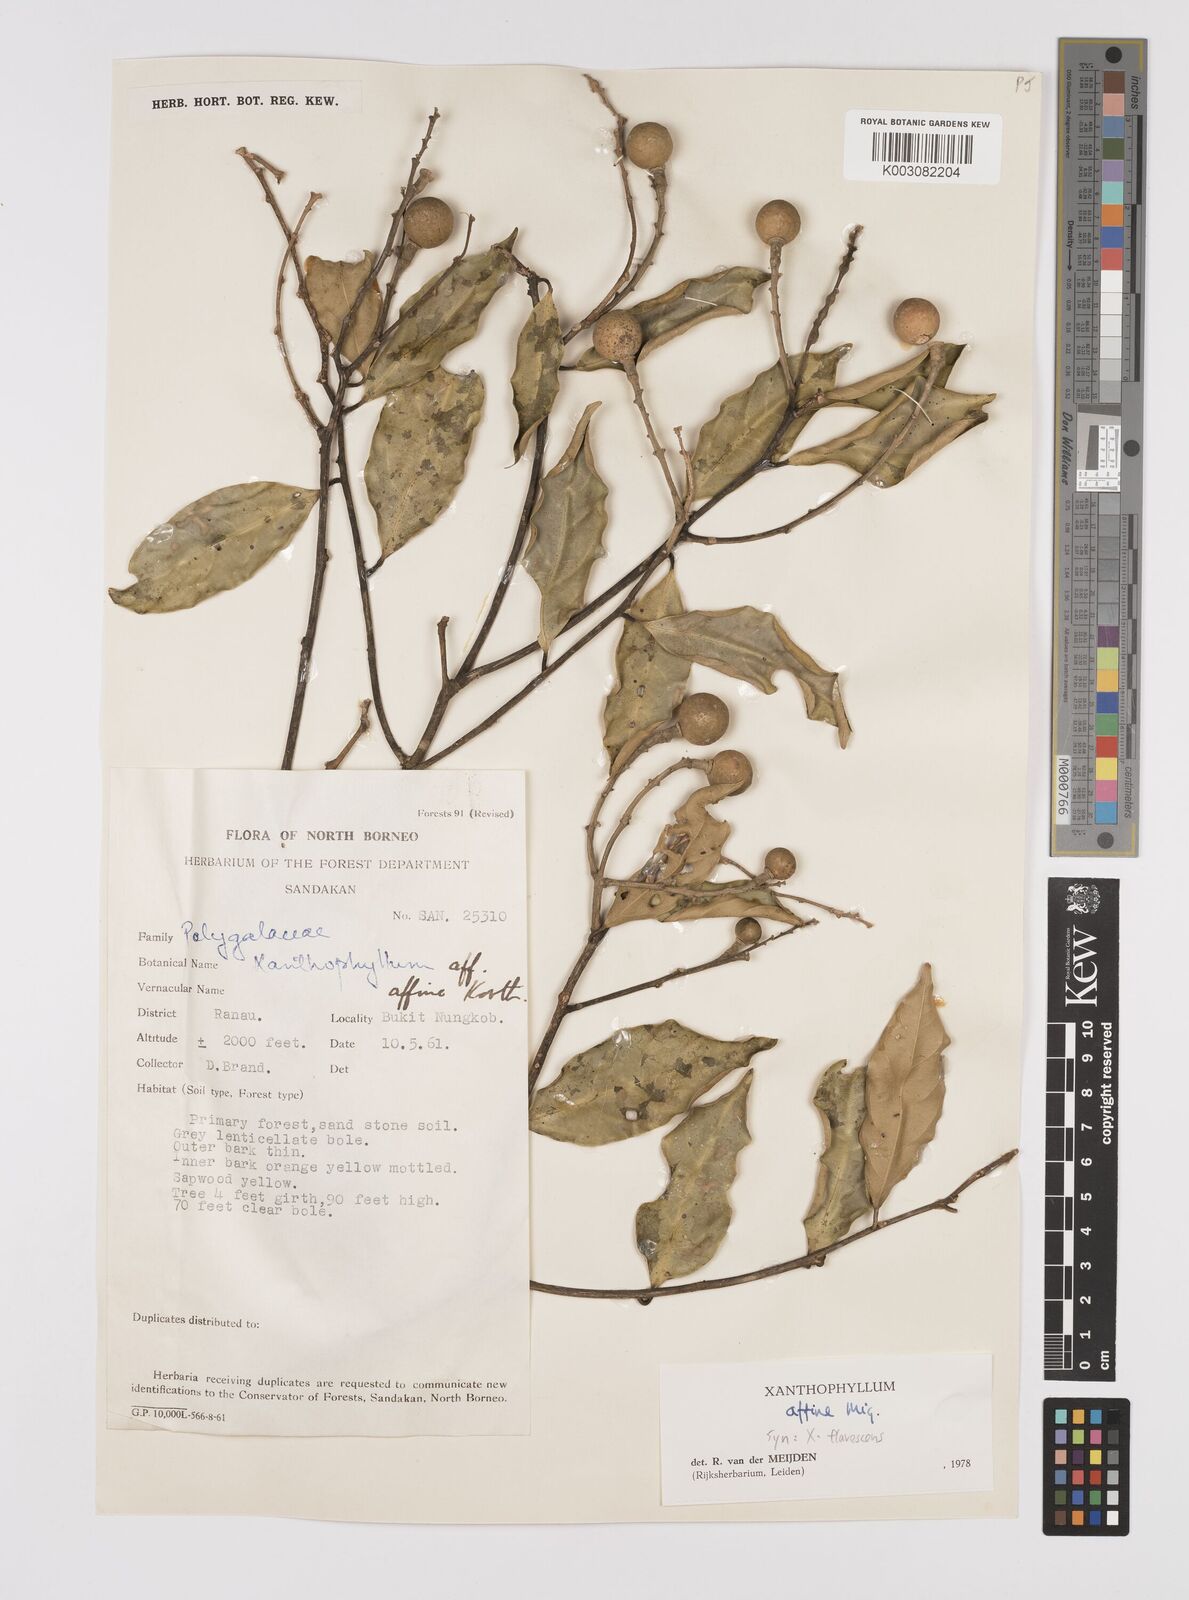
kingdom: Plantae
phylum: Tracheophyta
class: Magnoliopsida
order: Fabales
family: Polygalaceae
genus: Xanthophyllum
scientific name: Xanthophyllum flavescens
